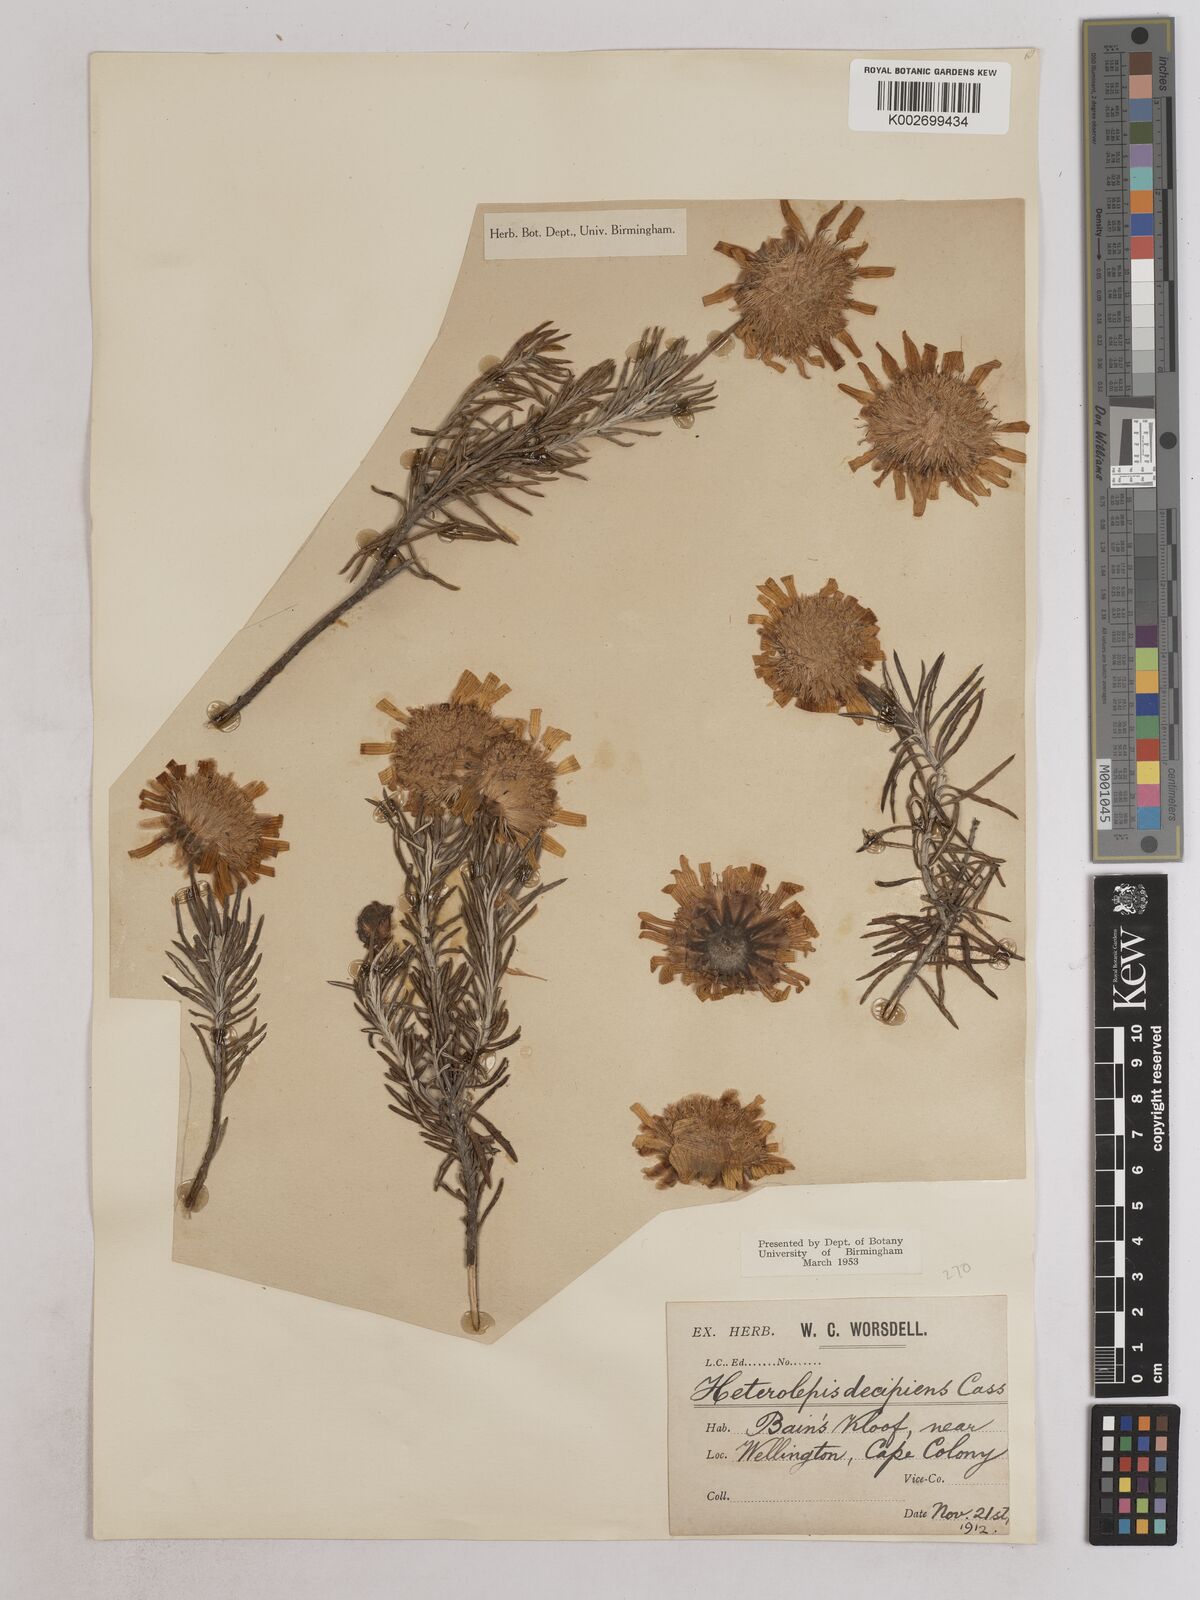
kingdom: Plantae
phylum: Tracheophyta
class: Magnoliopsida
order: Asterales
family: Asteraceae
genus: Heterolepis
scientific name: Heterolepis aliena
